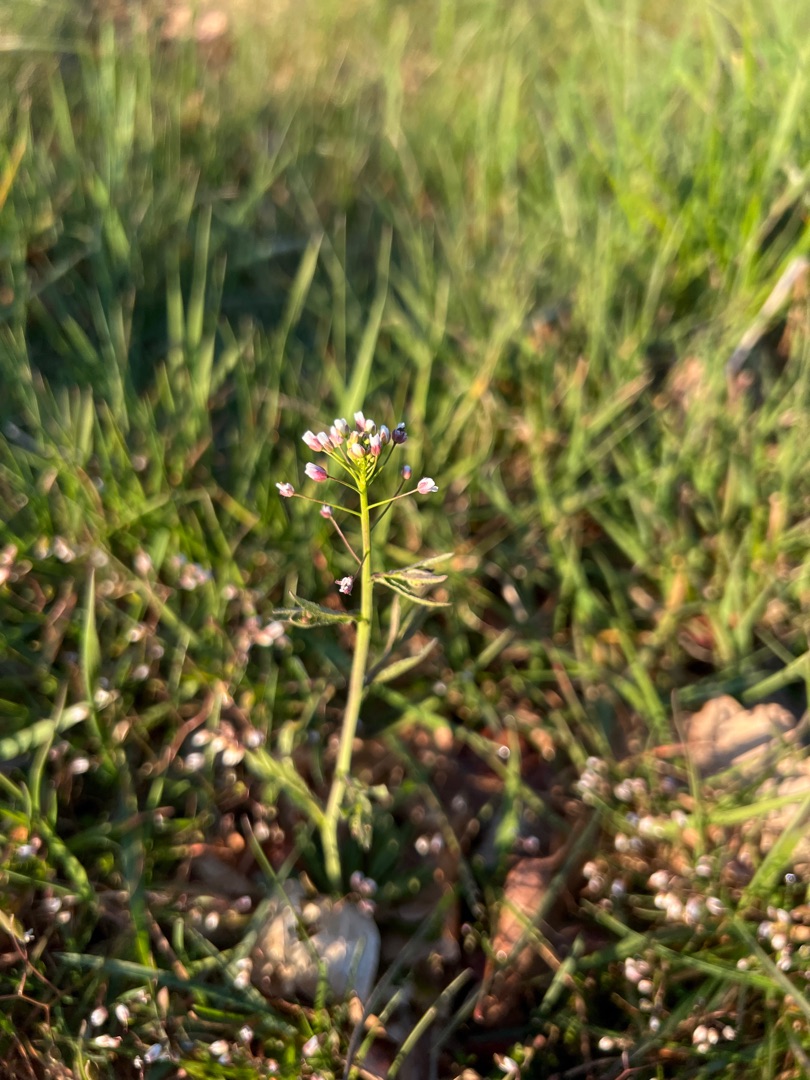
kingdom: Plantae
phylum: Tracheophyta
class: Magnoliopsida
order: Brassicales
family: Brassicaceae
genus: Capsella
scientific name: Capsella bursa-pastoris
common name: Hyrdetaske
